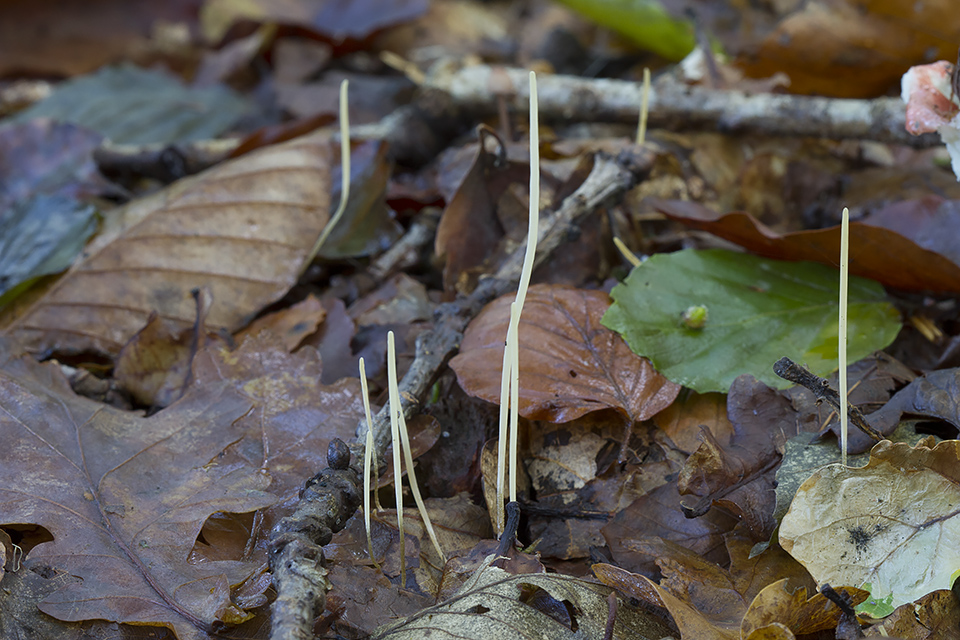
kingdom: Fungi
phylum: Basidiomycota
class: Agaricomycetes
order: Agaricales
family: Typhulaceae
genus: Typhula
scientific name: Typhula juncea
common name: trådagtig rørkølle
